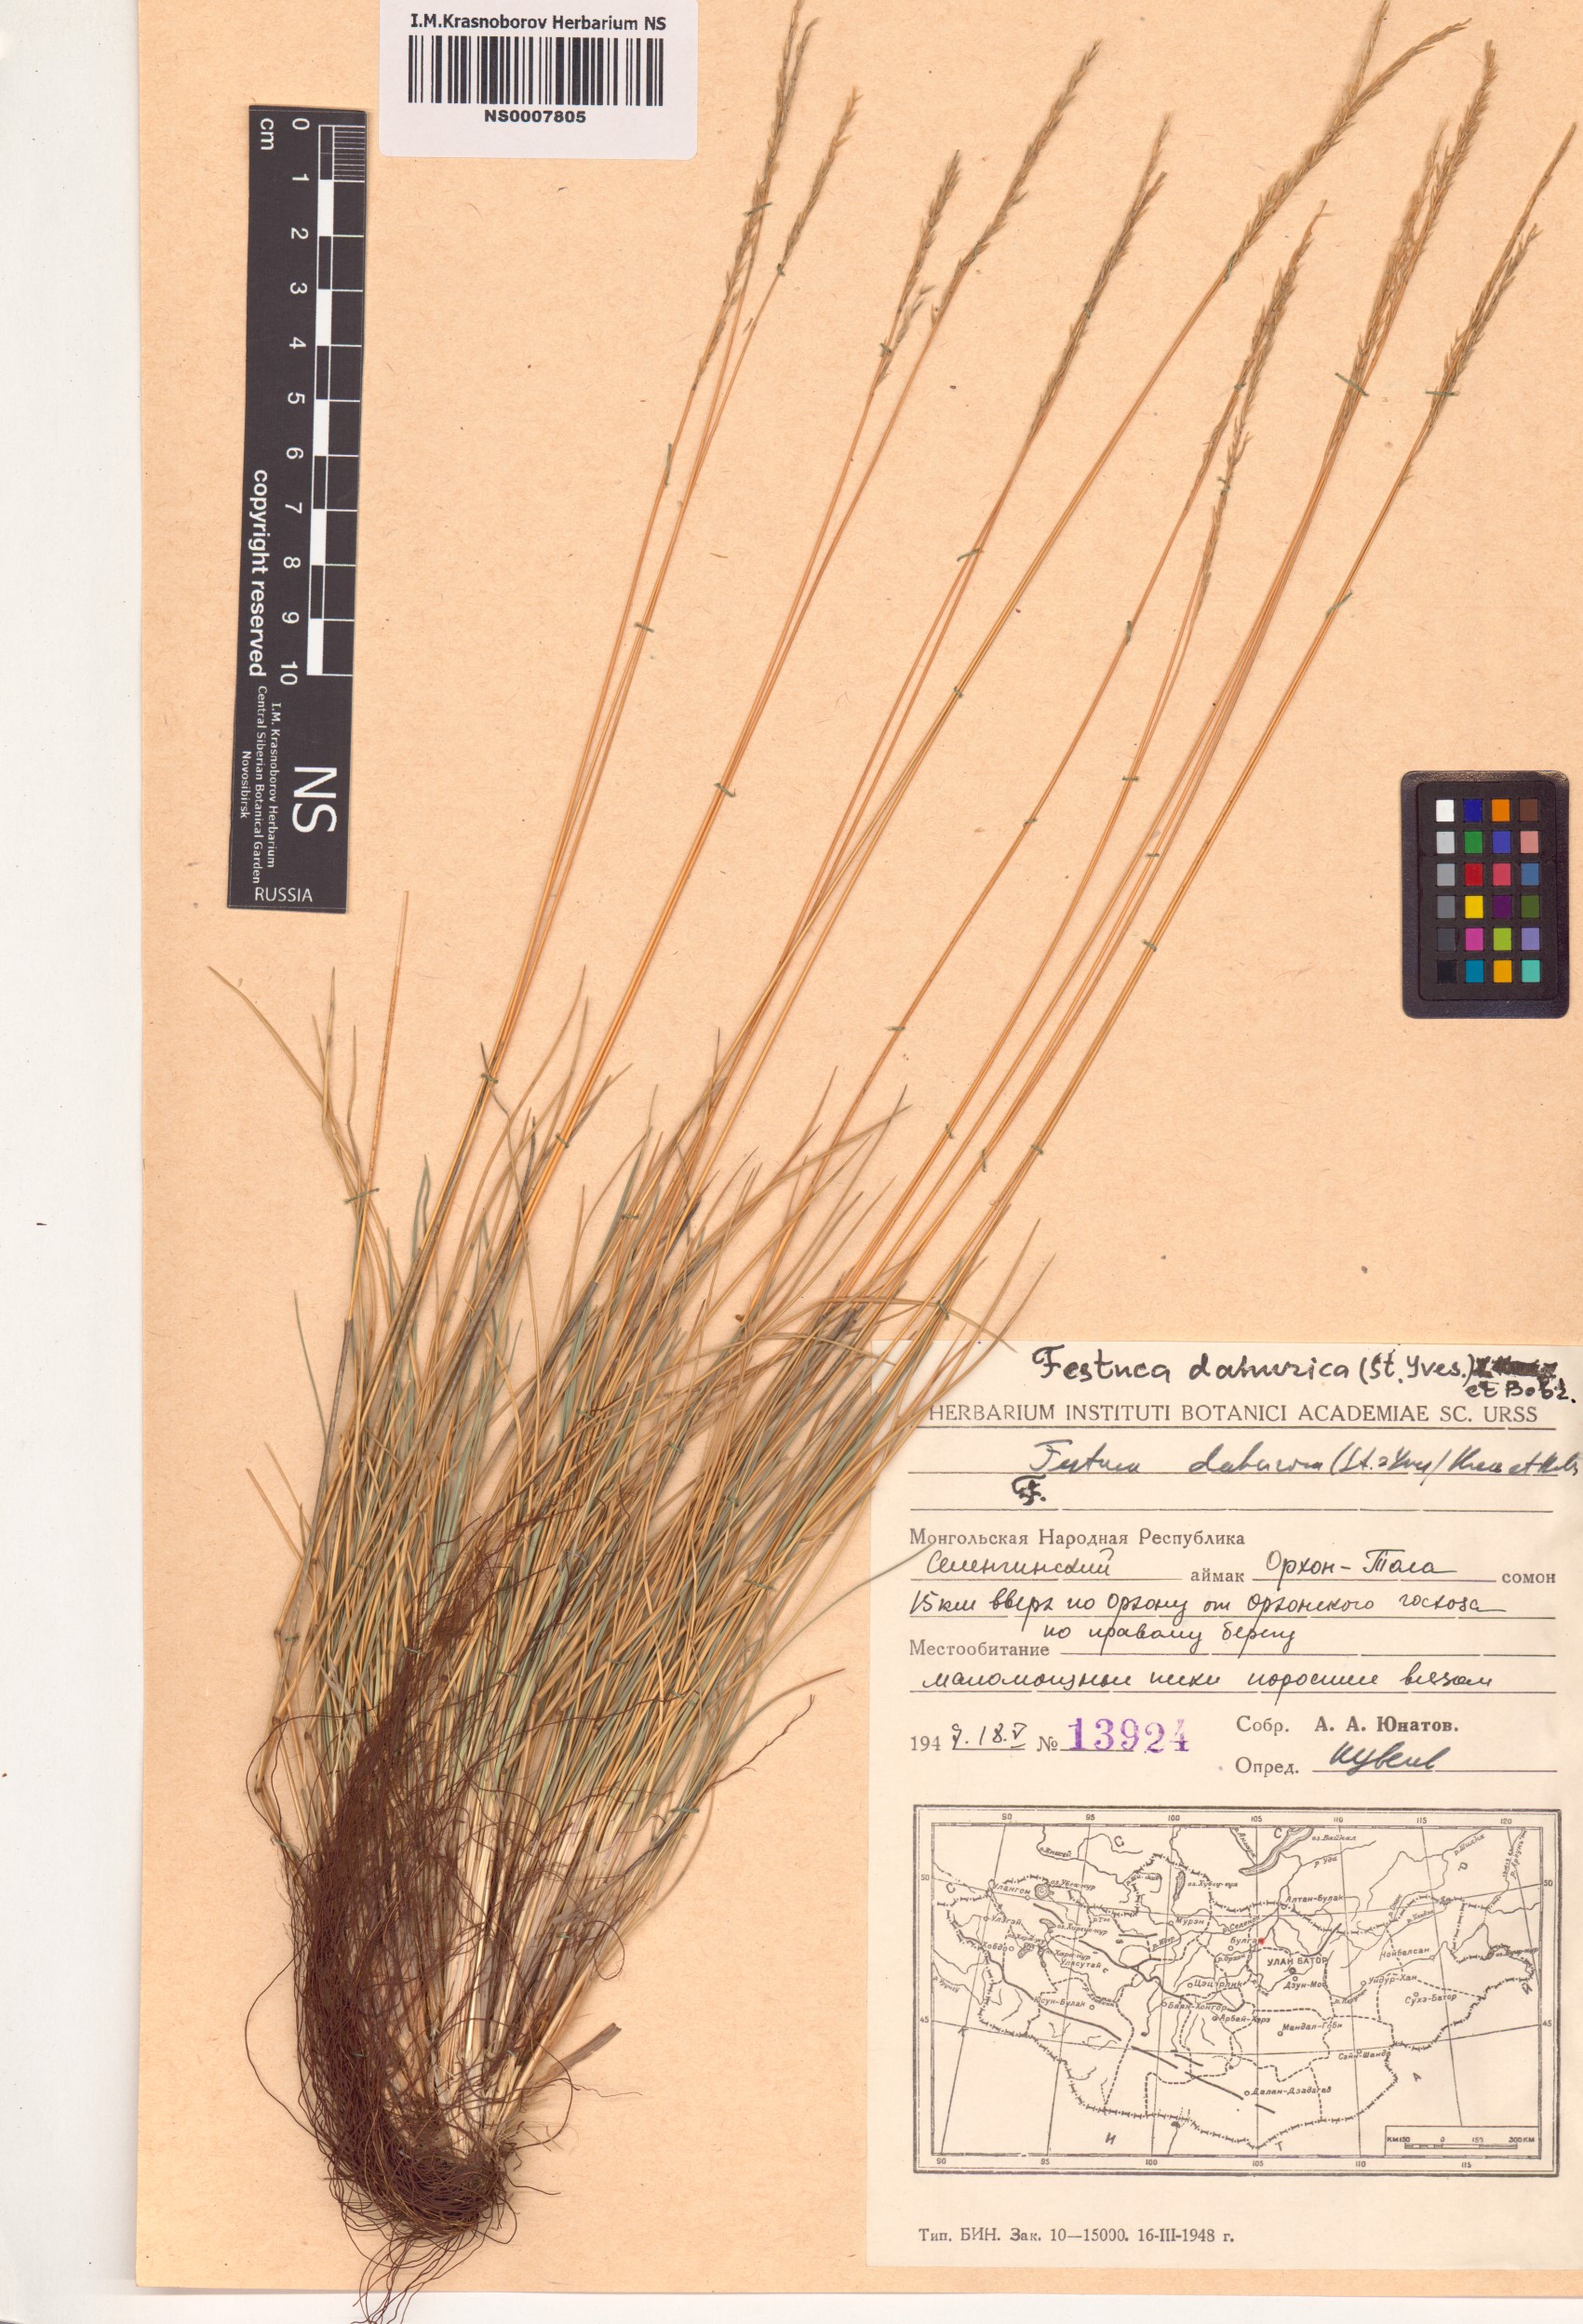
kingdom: Plantae
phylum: Tracheophyta
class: Liliopsida
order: Poales
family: Poaceae
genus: Festuca
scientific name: Festuca dahurica
